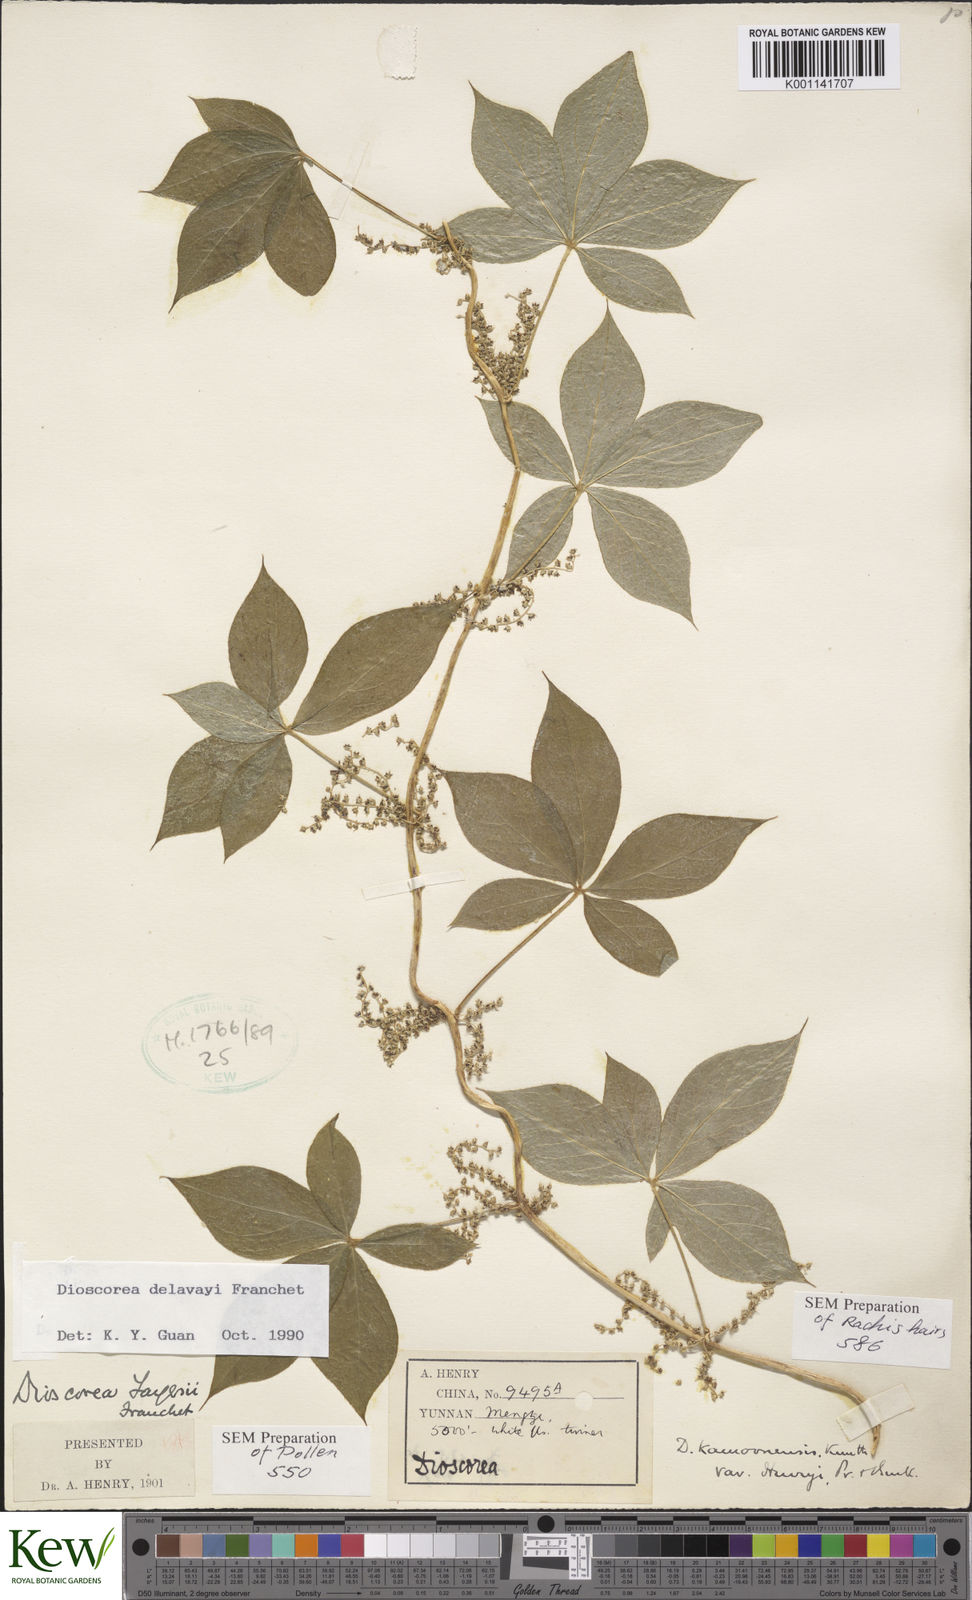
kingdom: Plantae
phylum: Tracheophyta
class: Liliopsida
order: Dioscoreales
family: Dioscoreaceae
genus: Dioscorea
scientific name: Dioscorea kamoonensis
